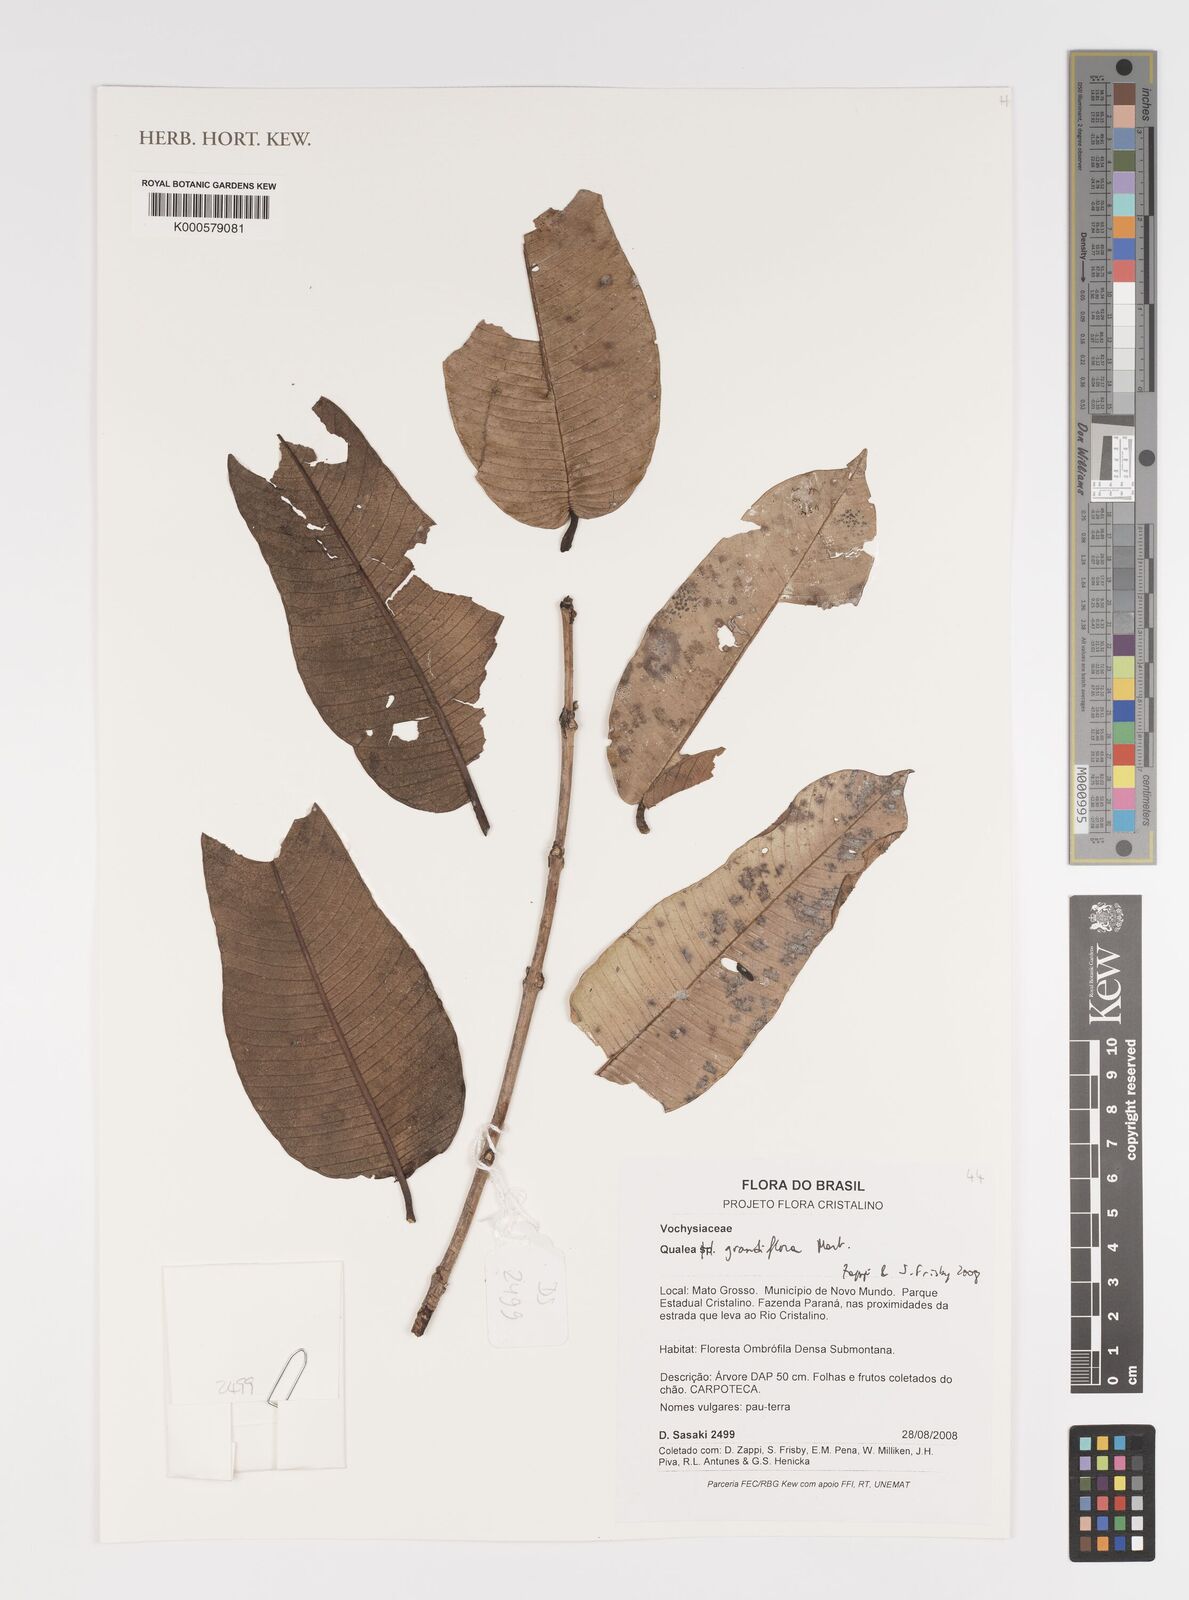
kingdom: Plantae
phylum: Tracheophyta
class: Magnoliopsida
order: Myrtales
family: Vochysiaceae
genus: Qualea
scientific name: Qualea grandiflora
